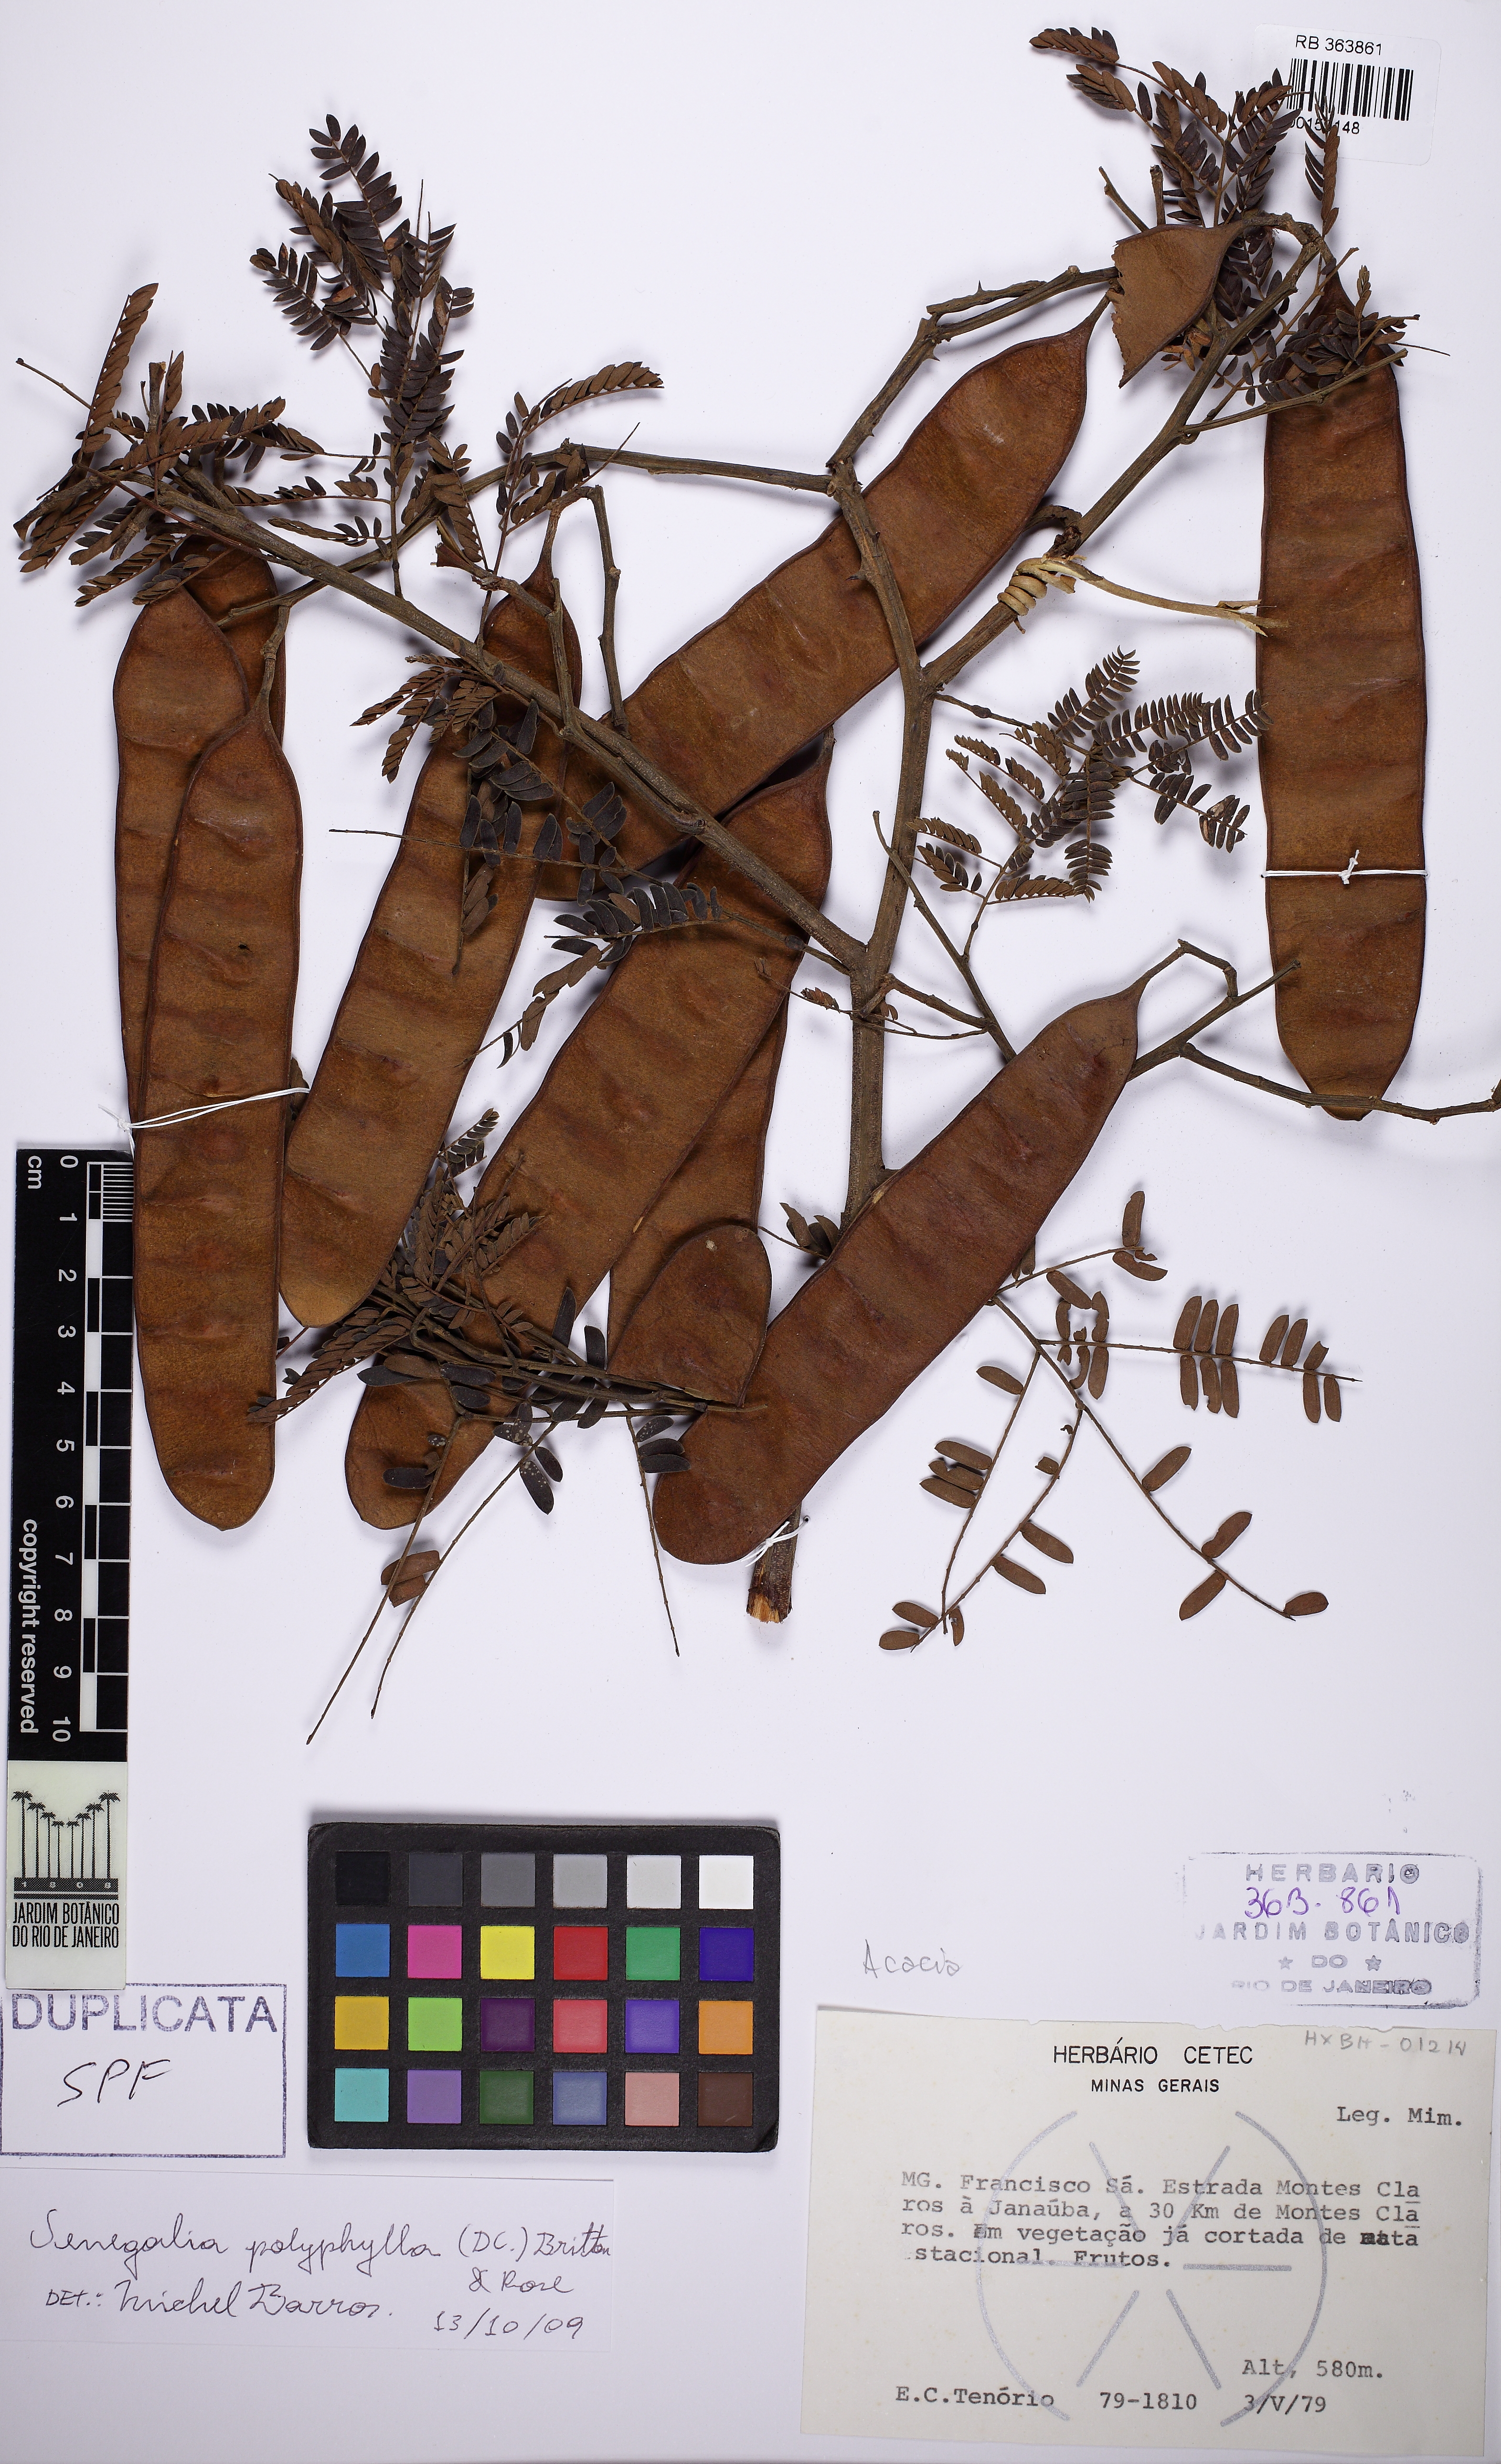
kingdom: Plantae
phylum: Tracheophyta
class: Magnoliopsida
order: Fabales
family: Fabaceae
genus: Senegalia
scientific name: Senegalia polyphylla
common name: White-tamarind
